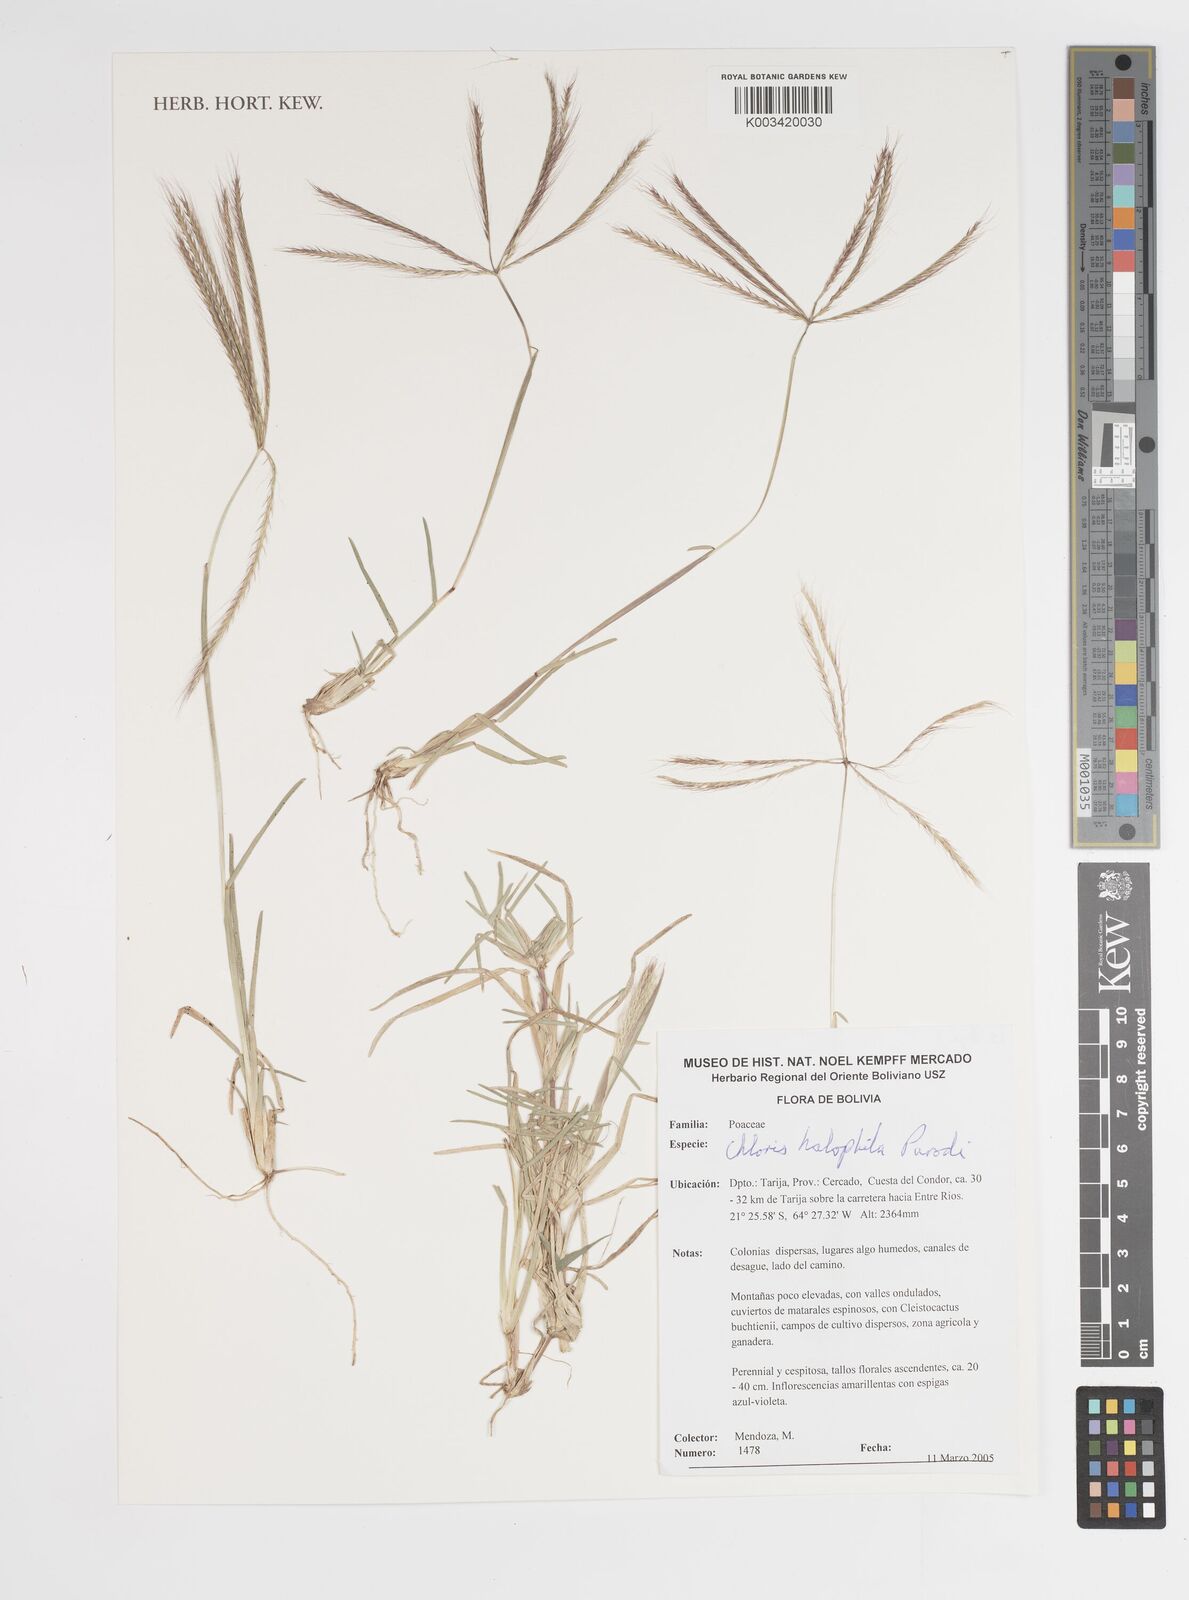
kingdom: Plantae
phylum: Tracheophyta
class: Liliopsida
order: Poales
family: Poaceae
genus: Chloris
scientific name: Chloris halophila
